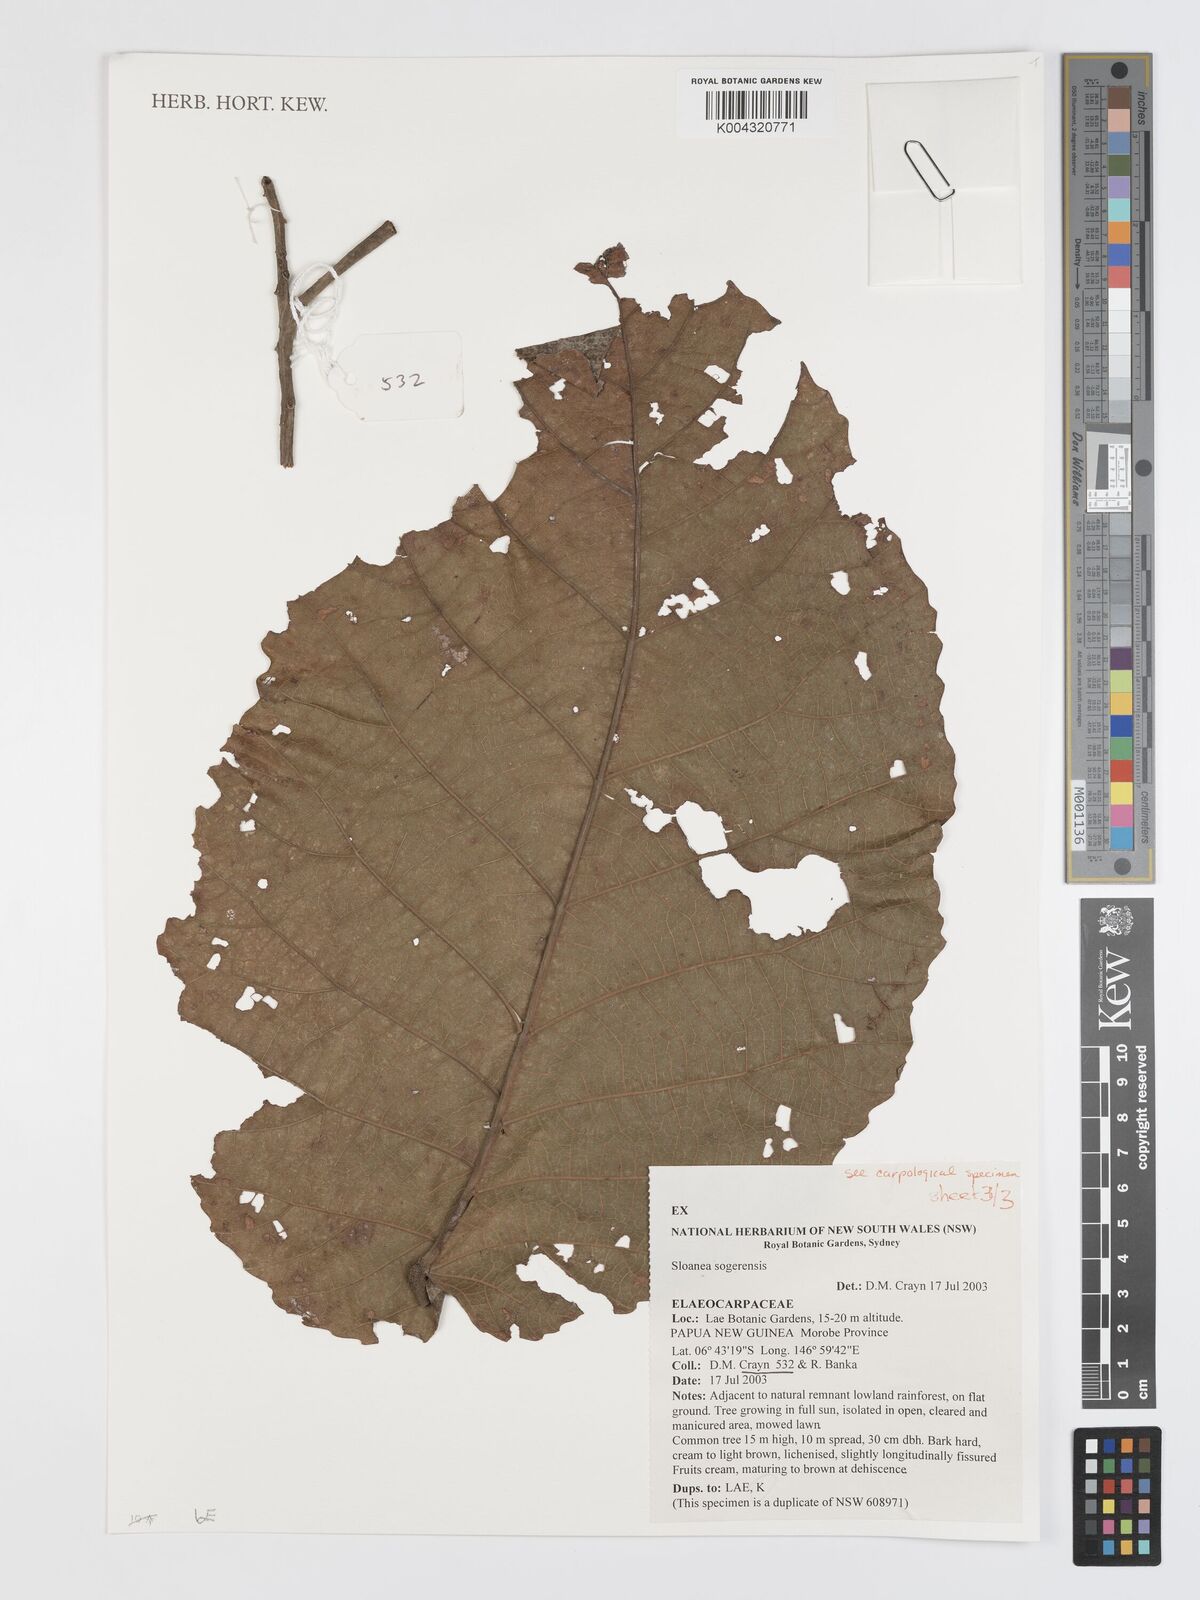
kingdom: Plantae
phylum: Tracheophyta
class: Magnoliopsida
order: Oxalidales
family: Elaeocarpaceae
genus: Sloanea
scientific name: Sloanea sogerensis
